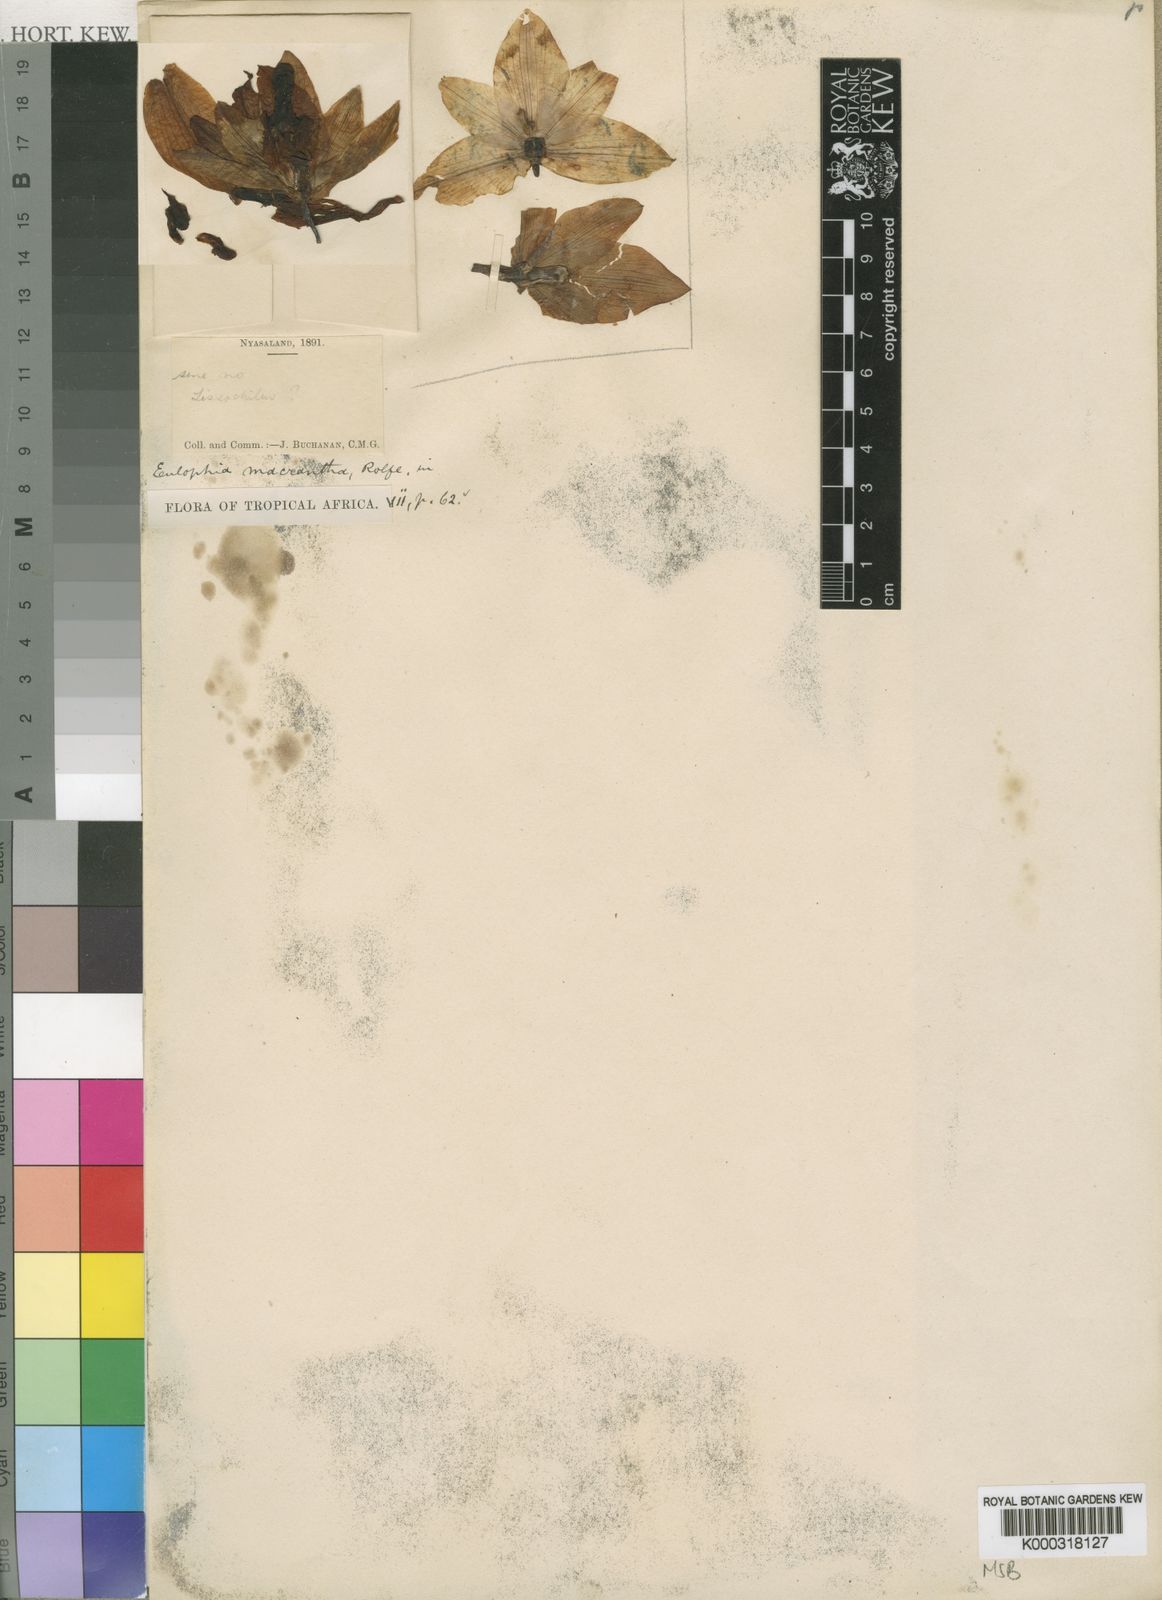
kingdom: Plantae
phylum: Tracheophyta
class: Liliopsida
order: Asparagales
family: Orchidaceae
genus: Eulophia
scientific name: Eulophia macrantha
